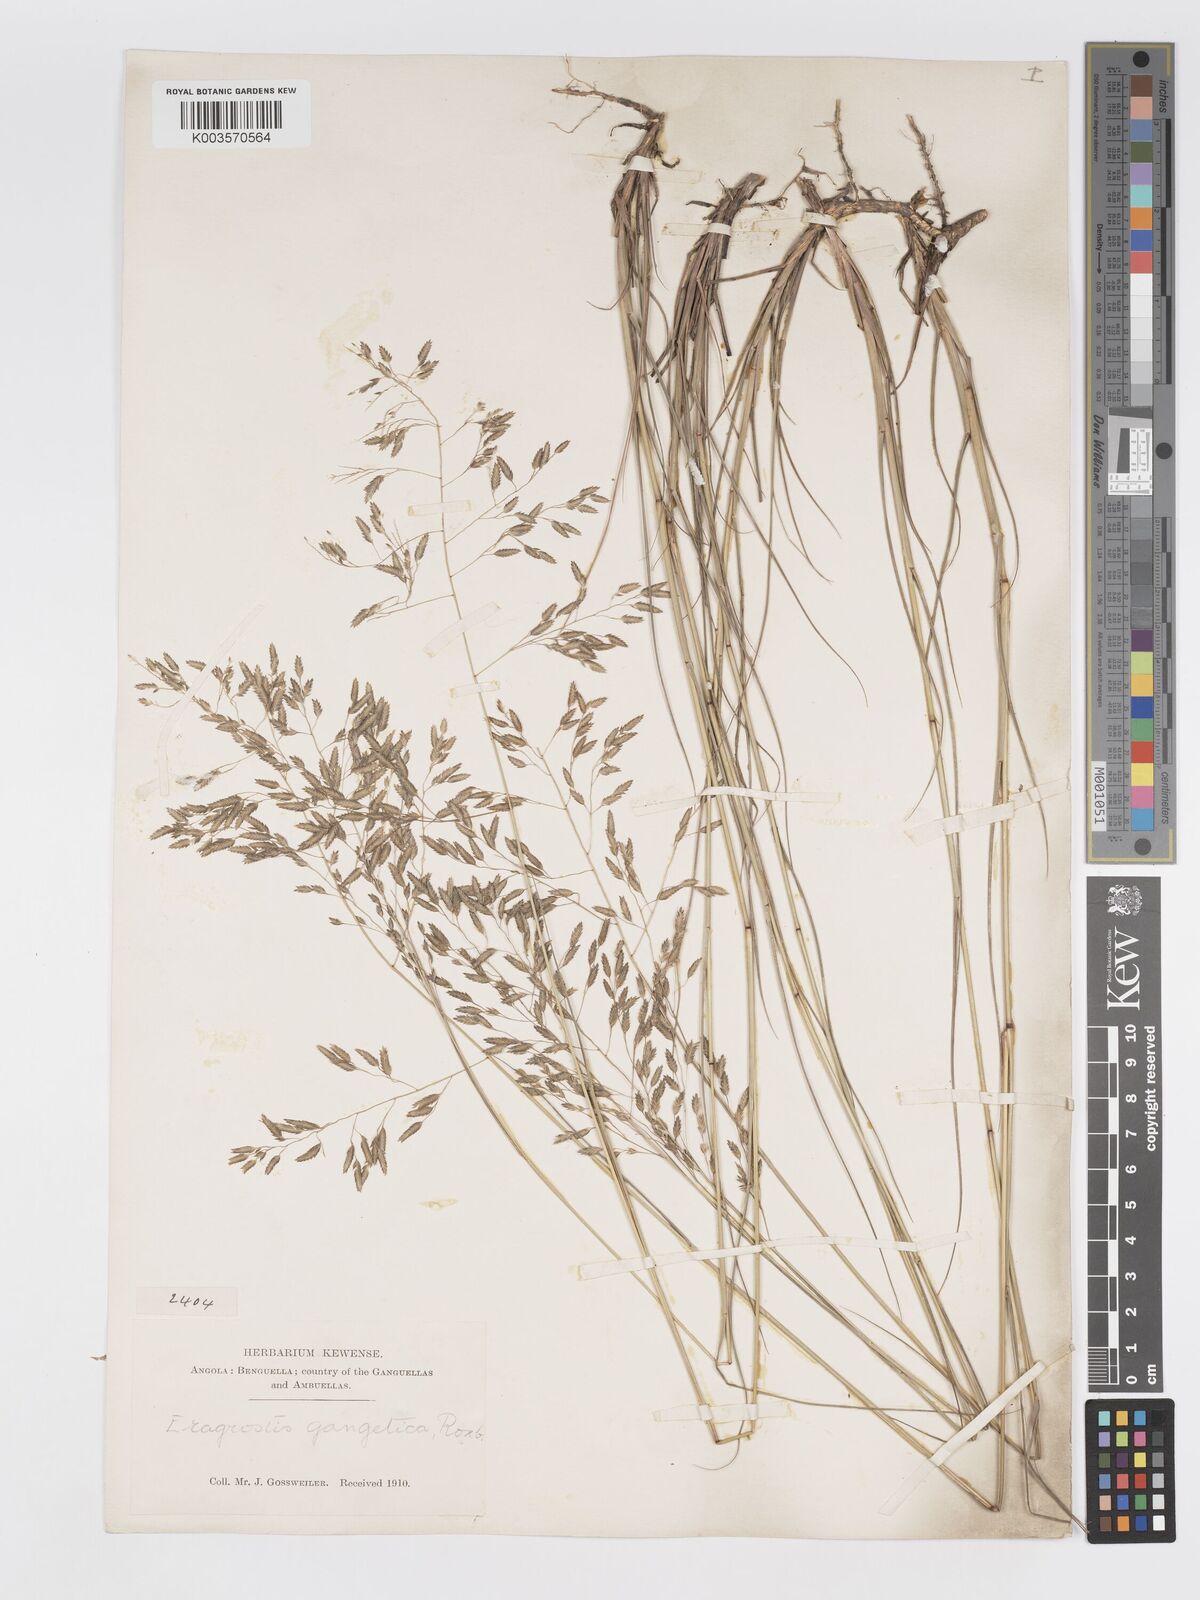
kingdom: Plantae
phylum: Tracheophyta
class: Liliopsida
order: Poales
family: Poaceae
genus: Eragrostis
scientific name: Eragrostis inamoena
